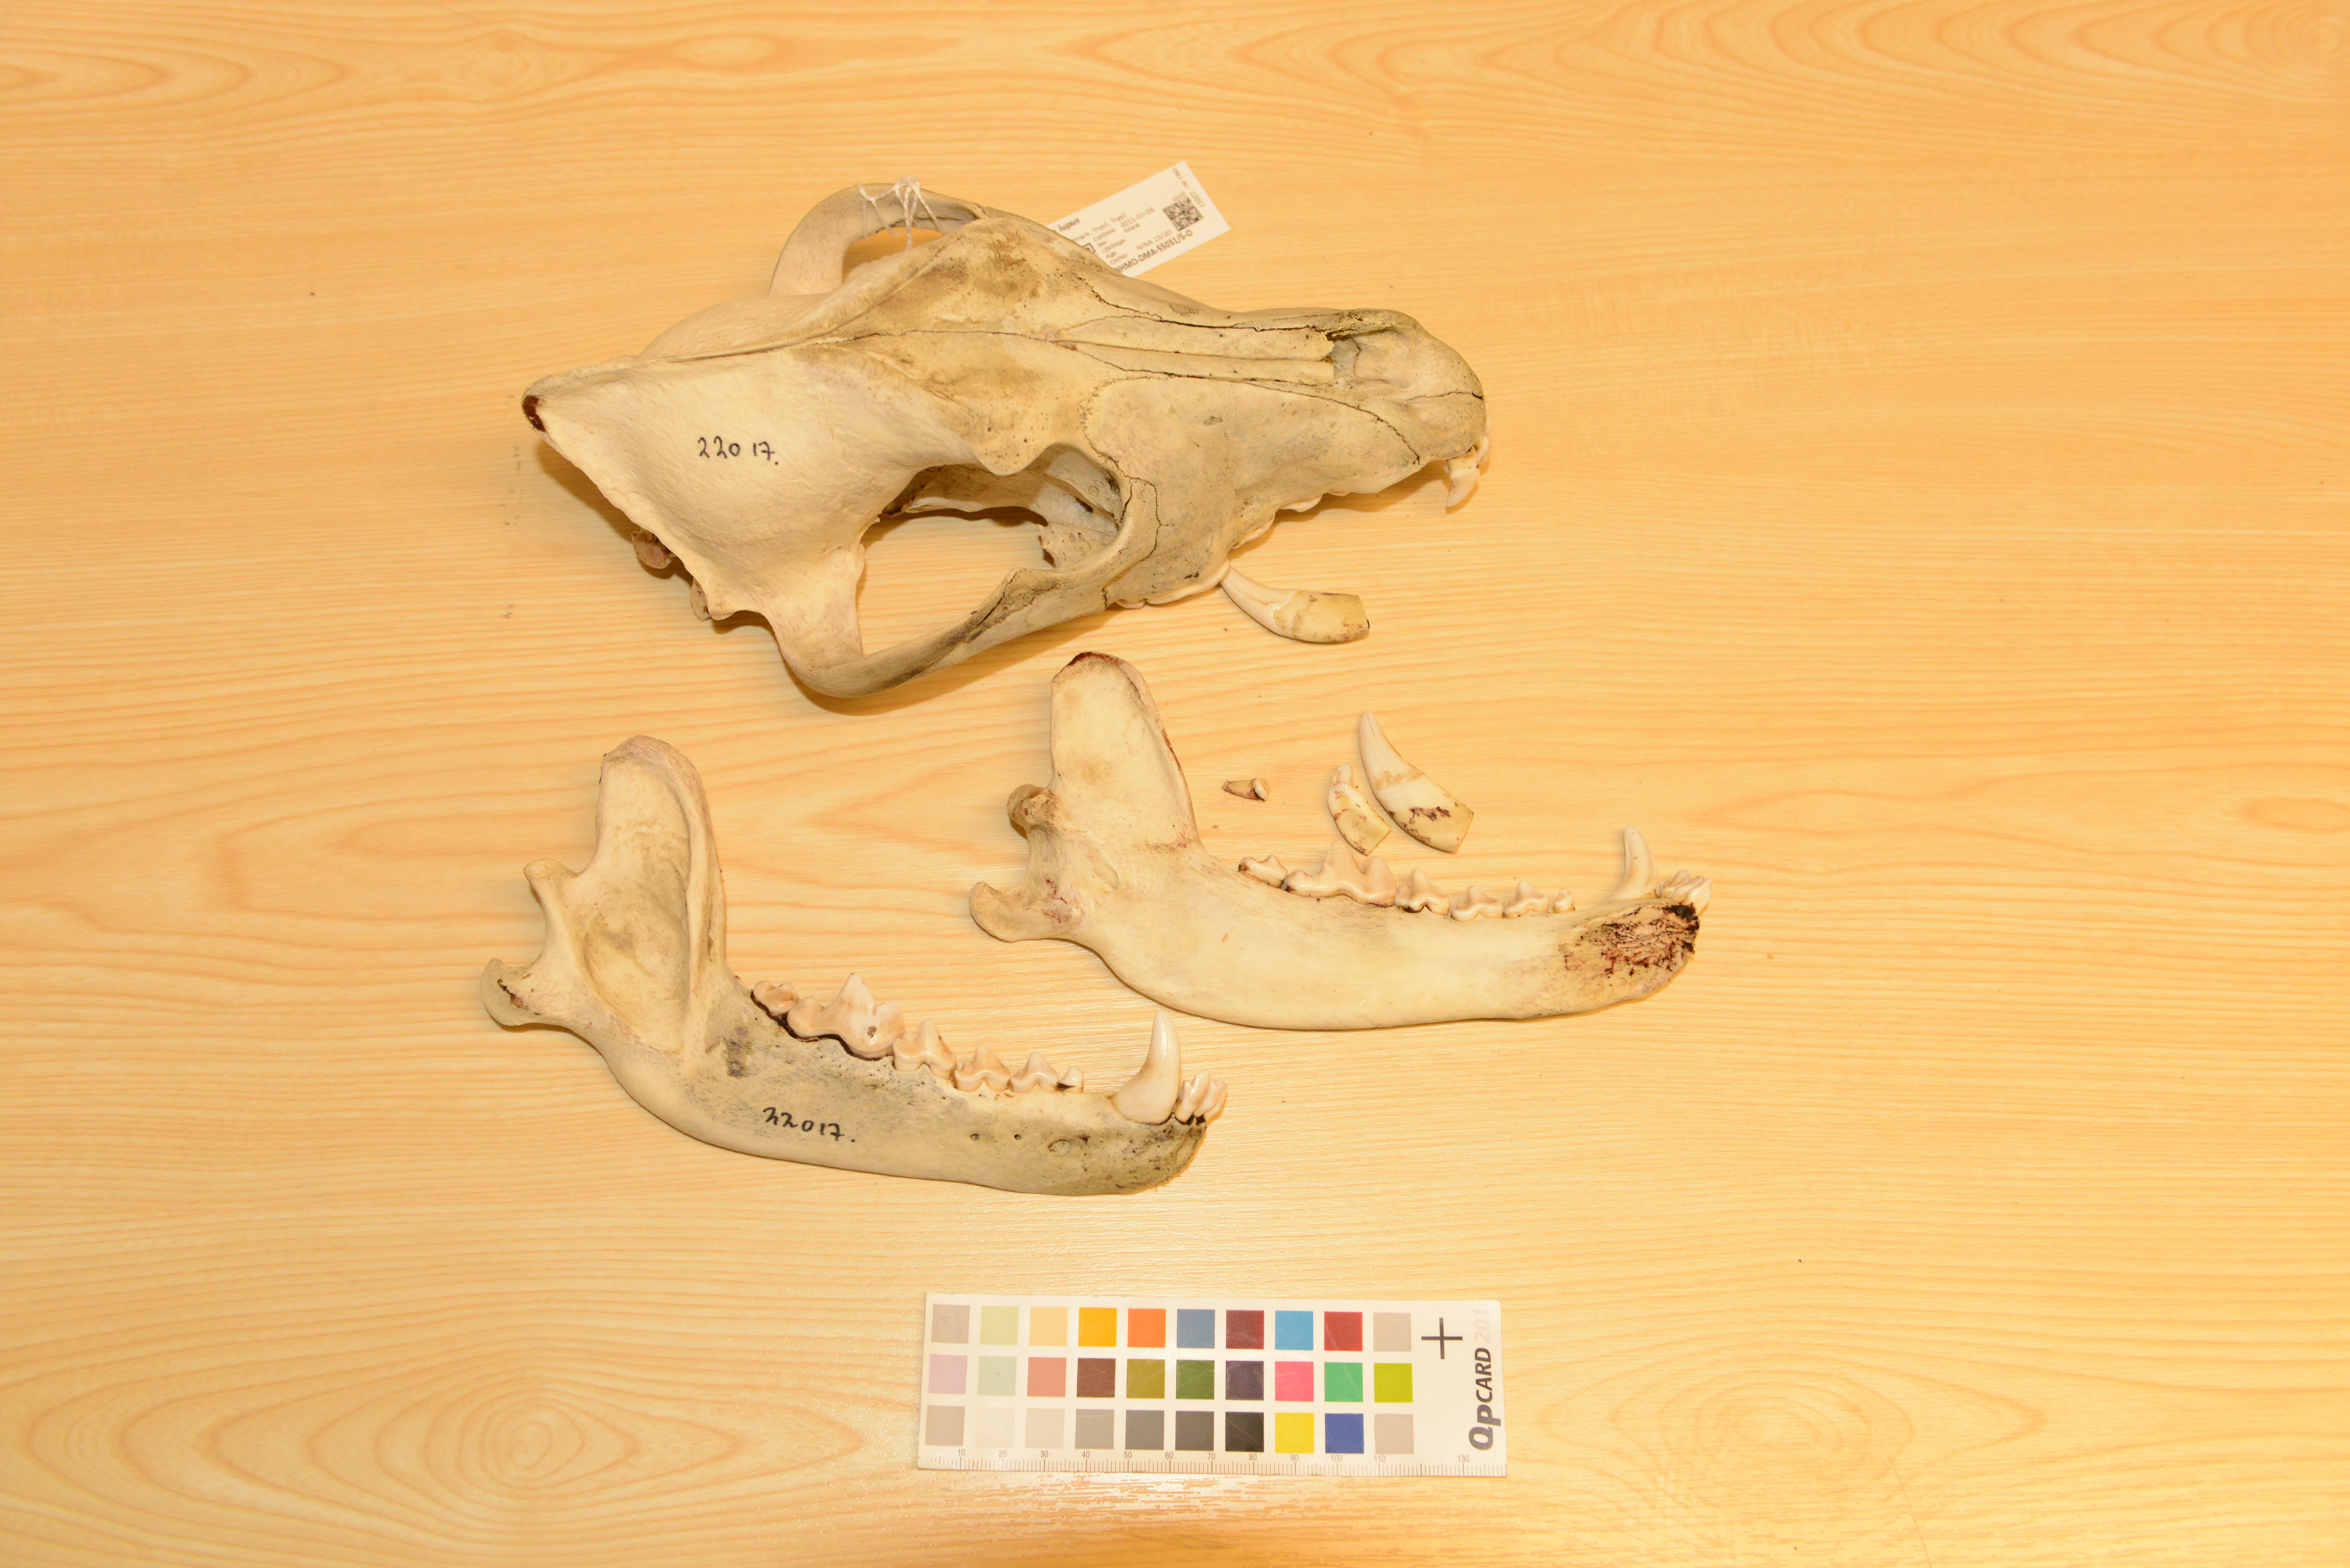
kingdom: Animalia
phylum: Chordata
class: Mammalia
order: Carnivora
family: Canidae
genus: Canis
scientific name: Canis lupus
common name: Gray wolf
